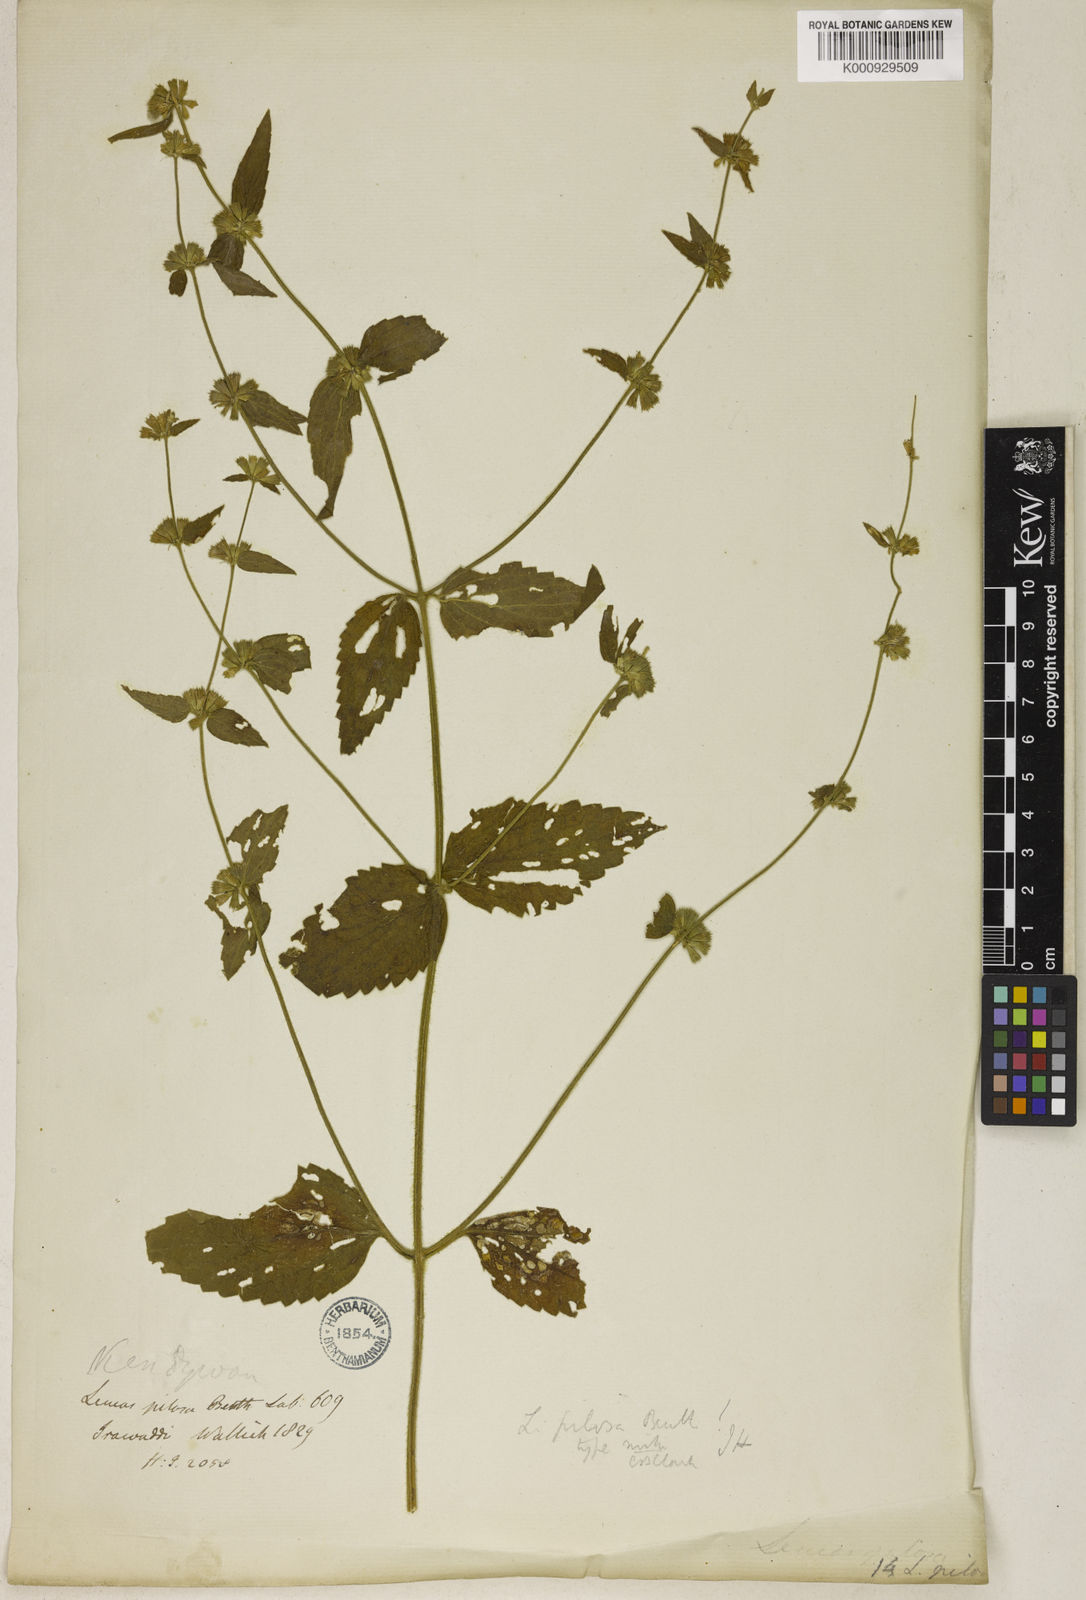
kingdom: Plantae
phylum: Tracheophyta
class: Magnoliopsida
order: Lamiales
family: Lamiaceae
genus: Leucas
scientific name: Leucas pilosa
